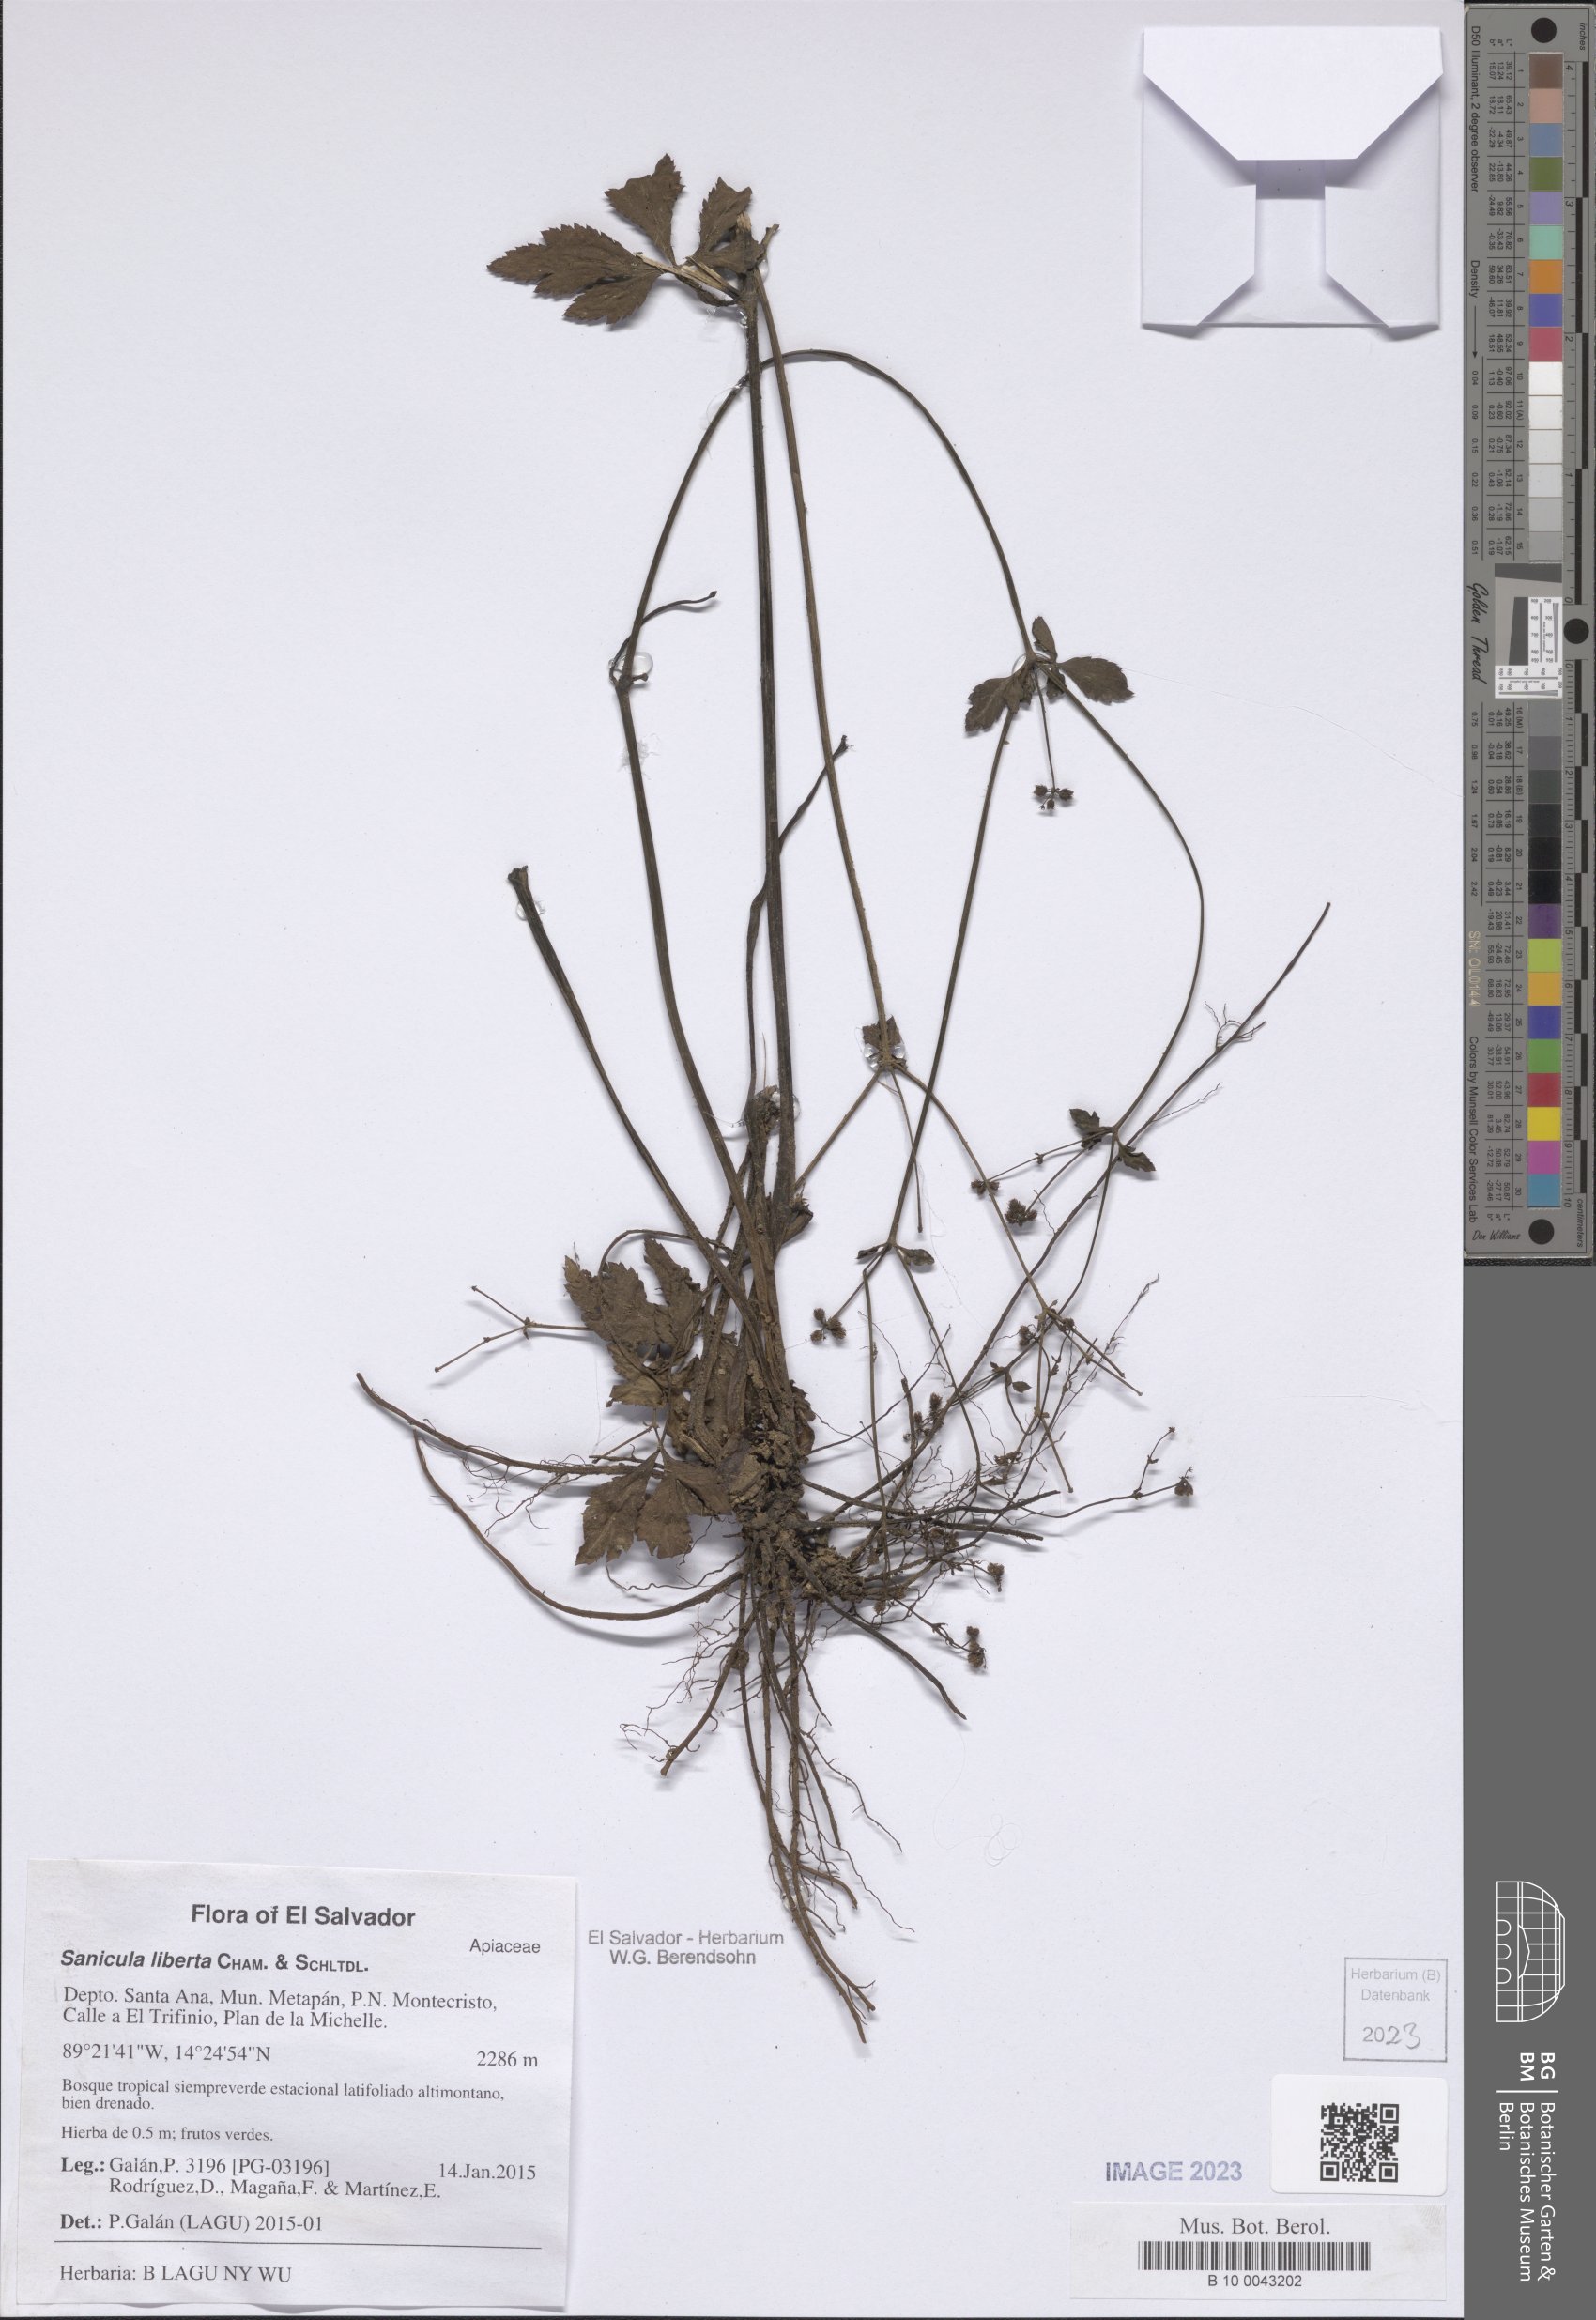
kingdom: Plantae
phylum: Tracheophyta
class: Magnoliopsida
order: Apiales
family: Apiaceae
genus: Sanicula
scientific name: Sanicula liberta
